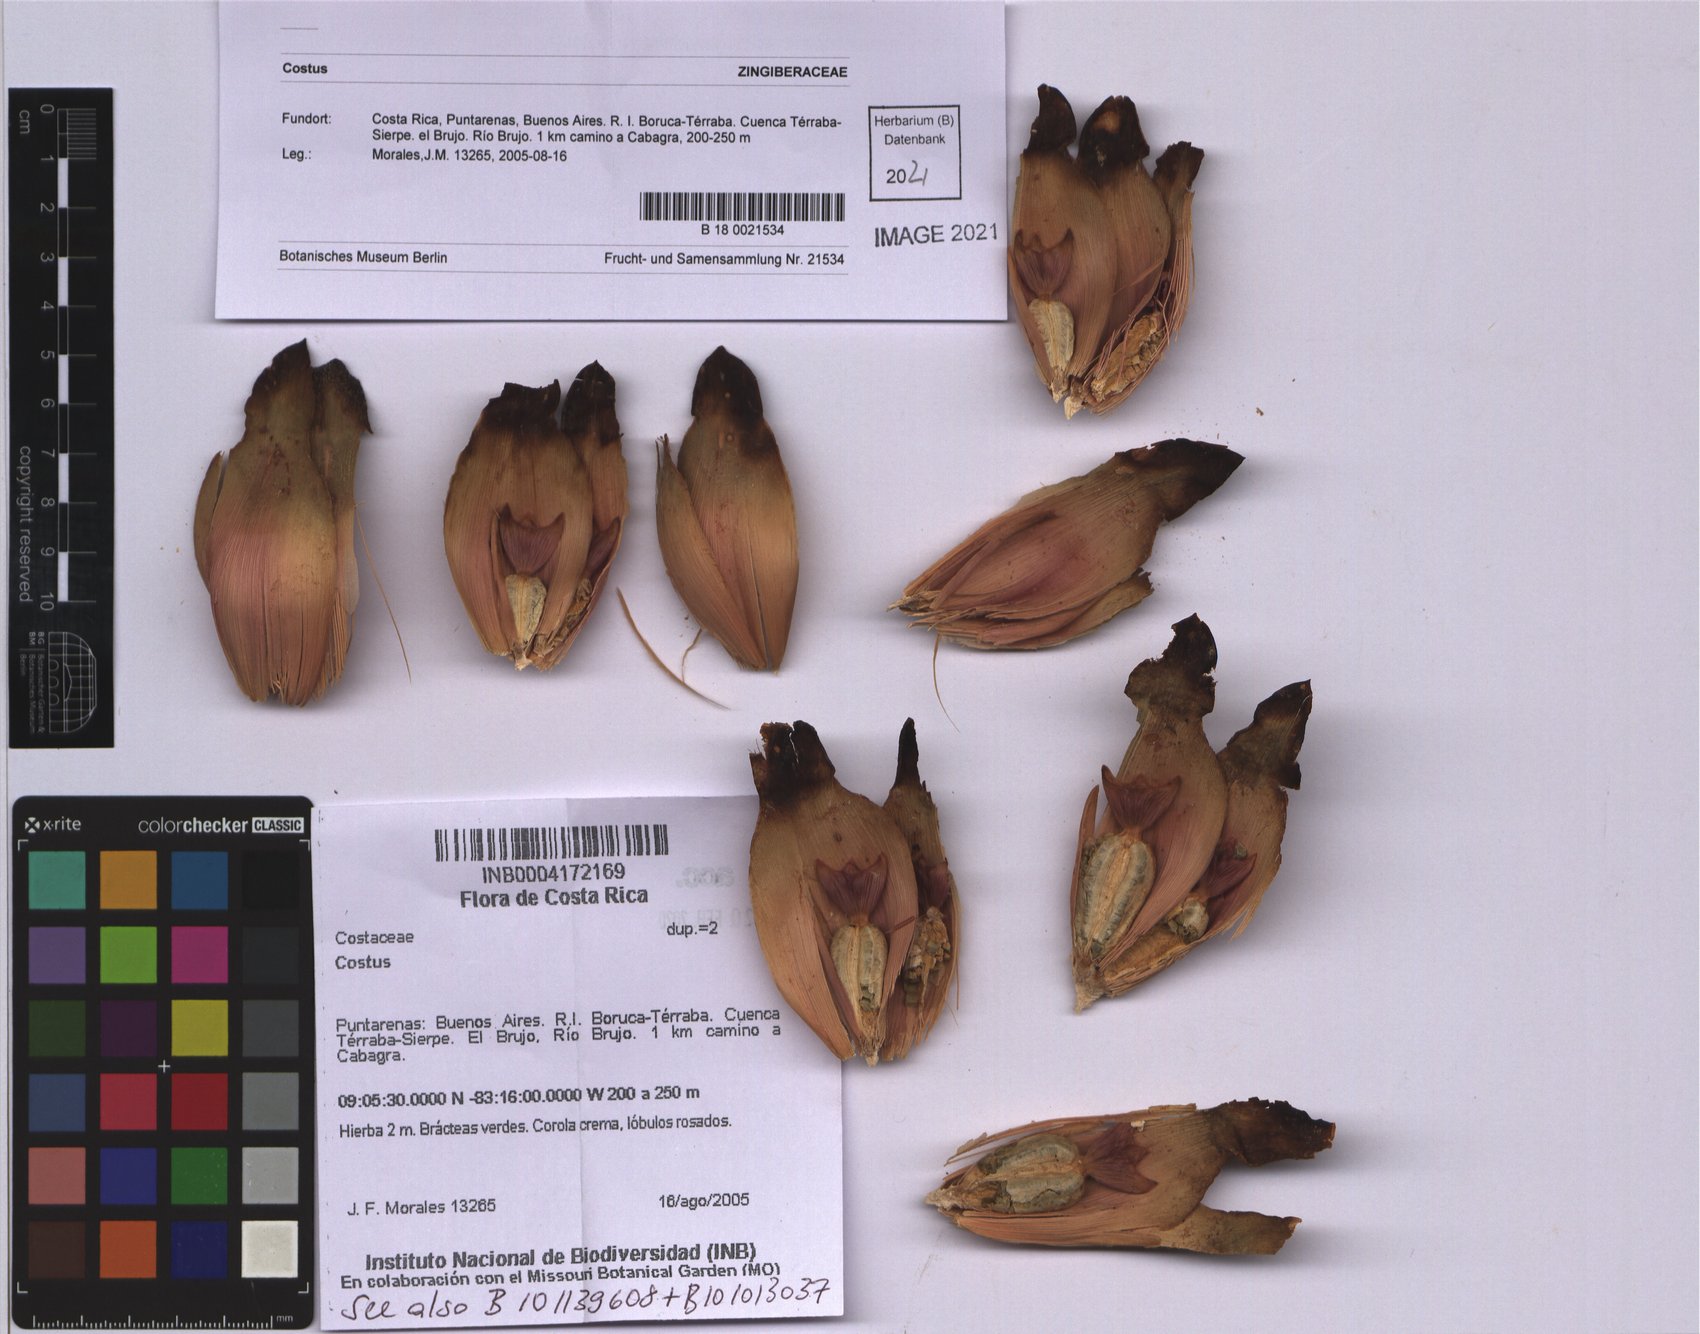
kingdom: Plantae
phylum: Tracheophyta
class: Liliopsida
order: Zingiberales
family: Costaceae
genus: Costus
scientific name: Costus
